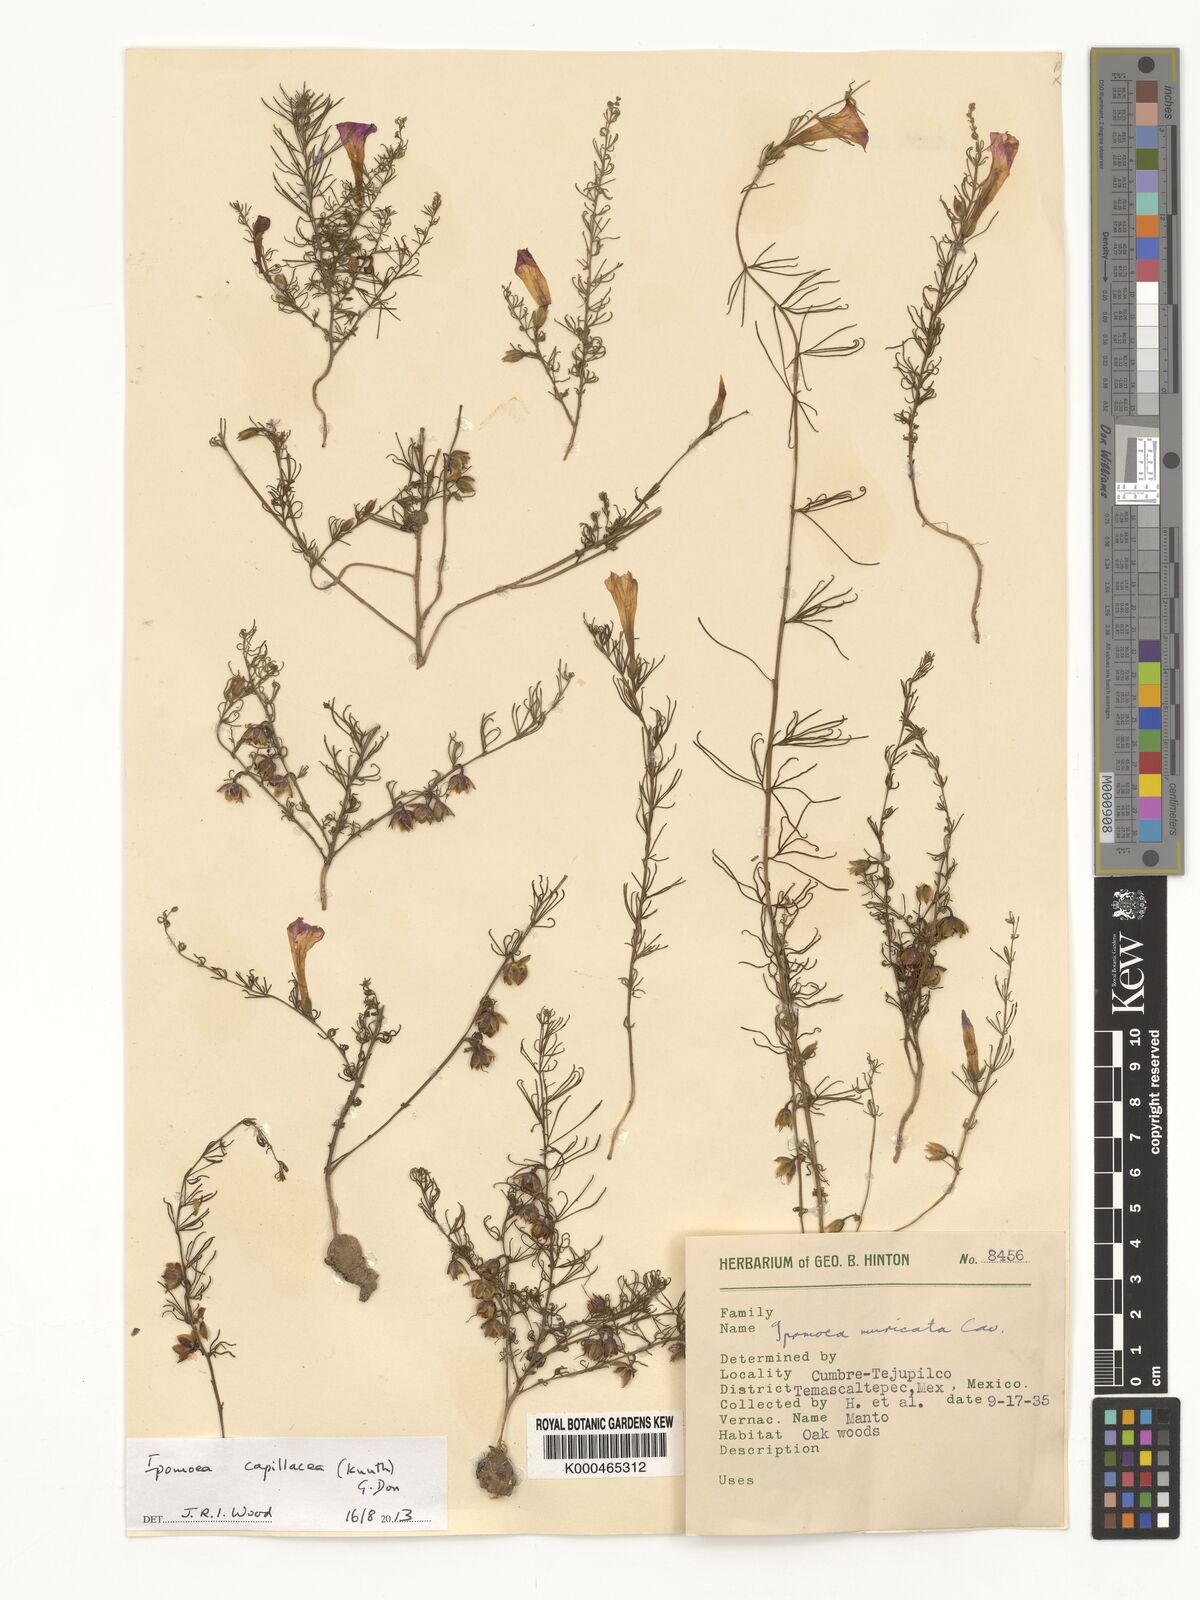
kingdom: Plantae
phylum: Tracheophyta
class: Magnoliopsida
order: Solanales
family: Convolvulaceae
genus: Ipomoea
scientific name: Ipomoea muricata
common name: Lilac-bell
